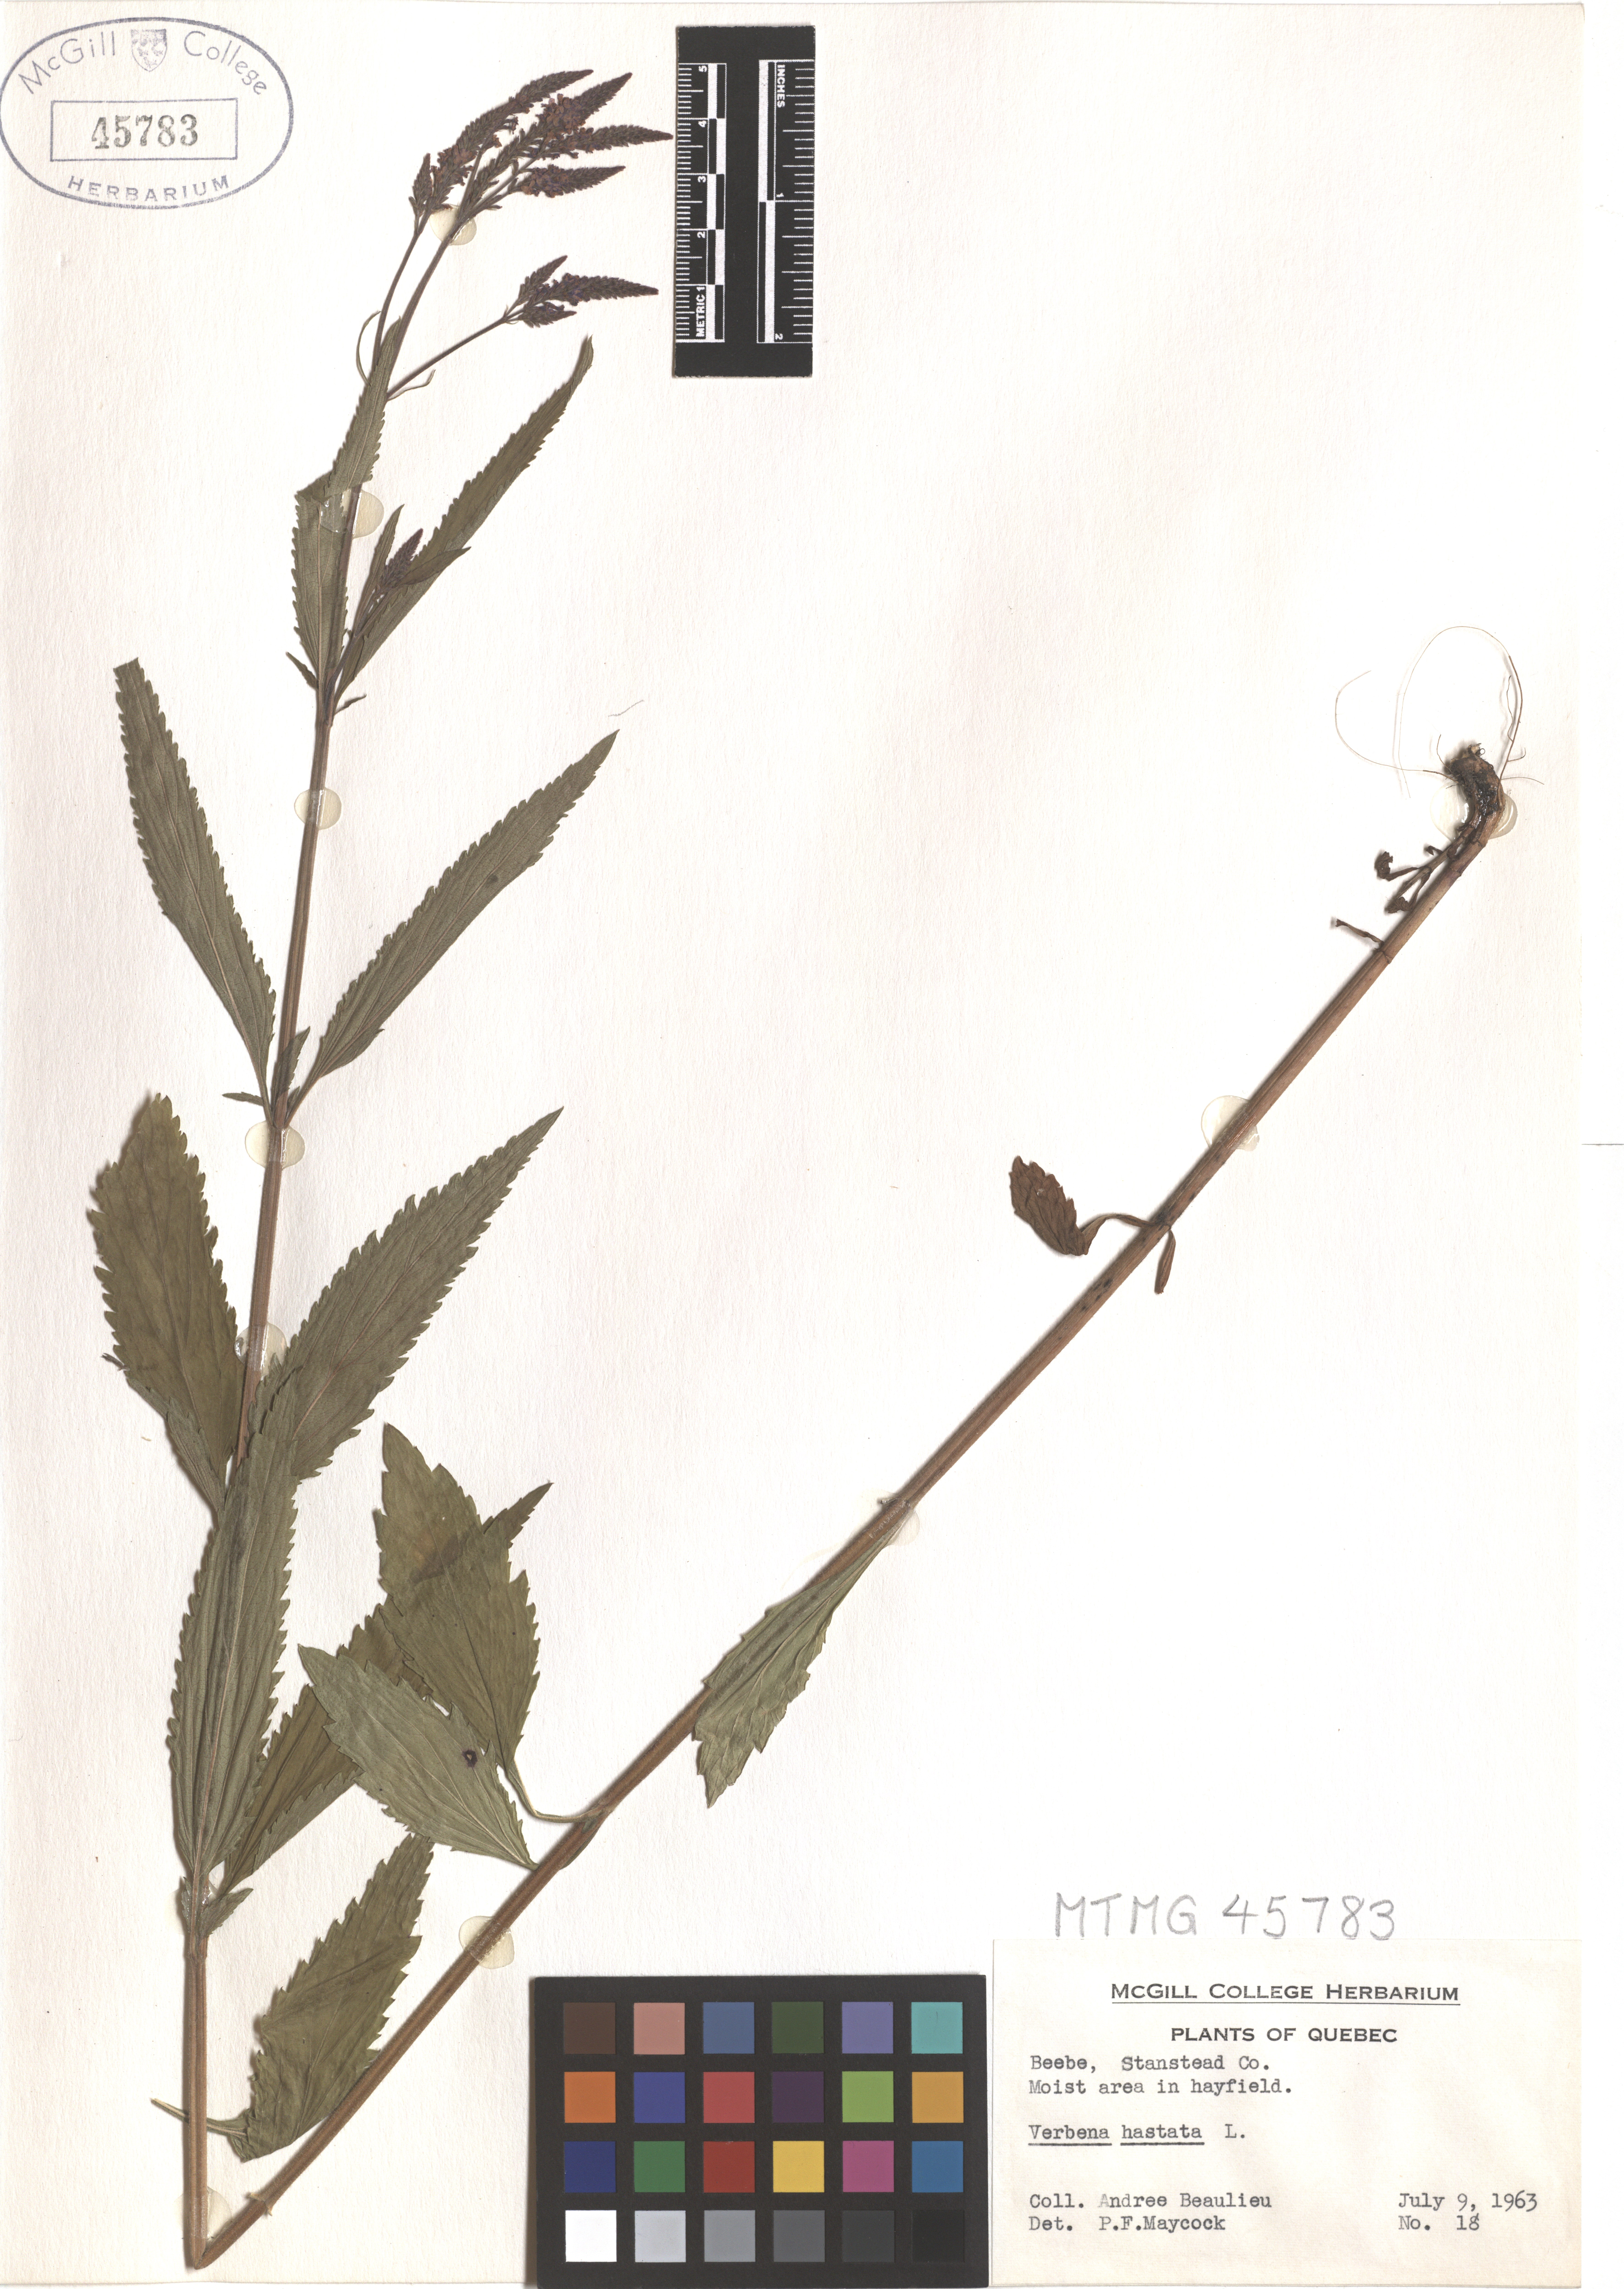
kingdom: Plantae
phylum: Tracheophyta
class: Magnoliopsida
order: Lamiales
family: Verbenaceae
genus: Verbena
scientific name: Verbena hastata
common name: American blue vervain
